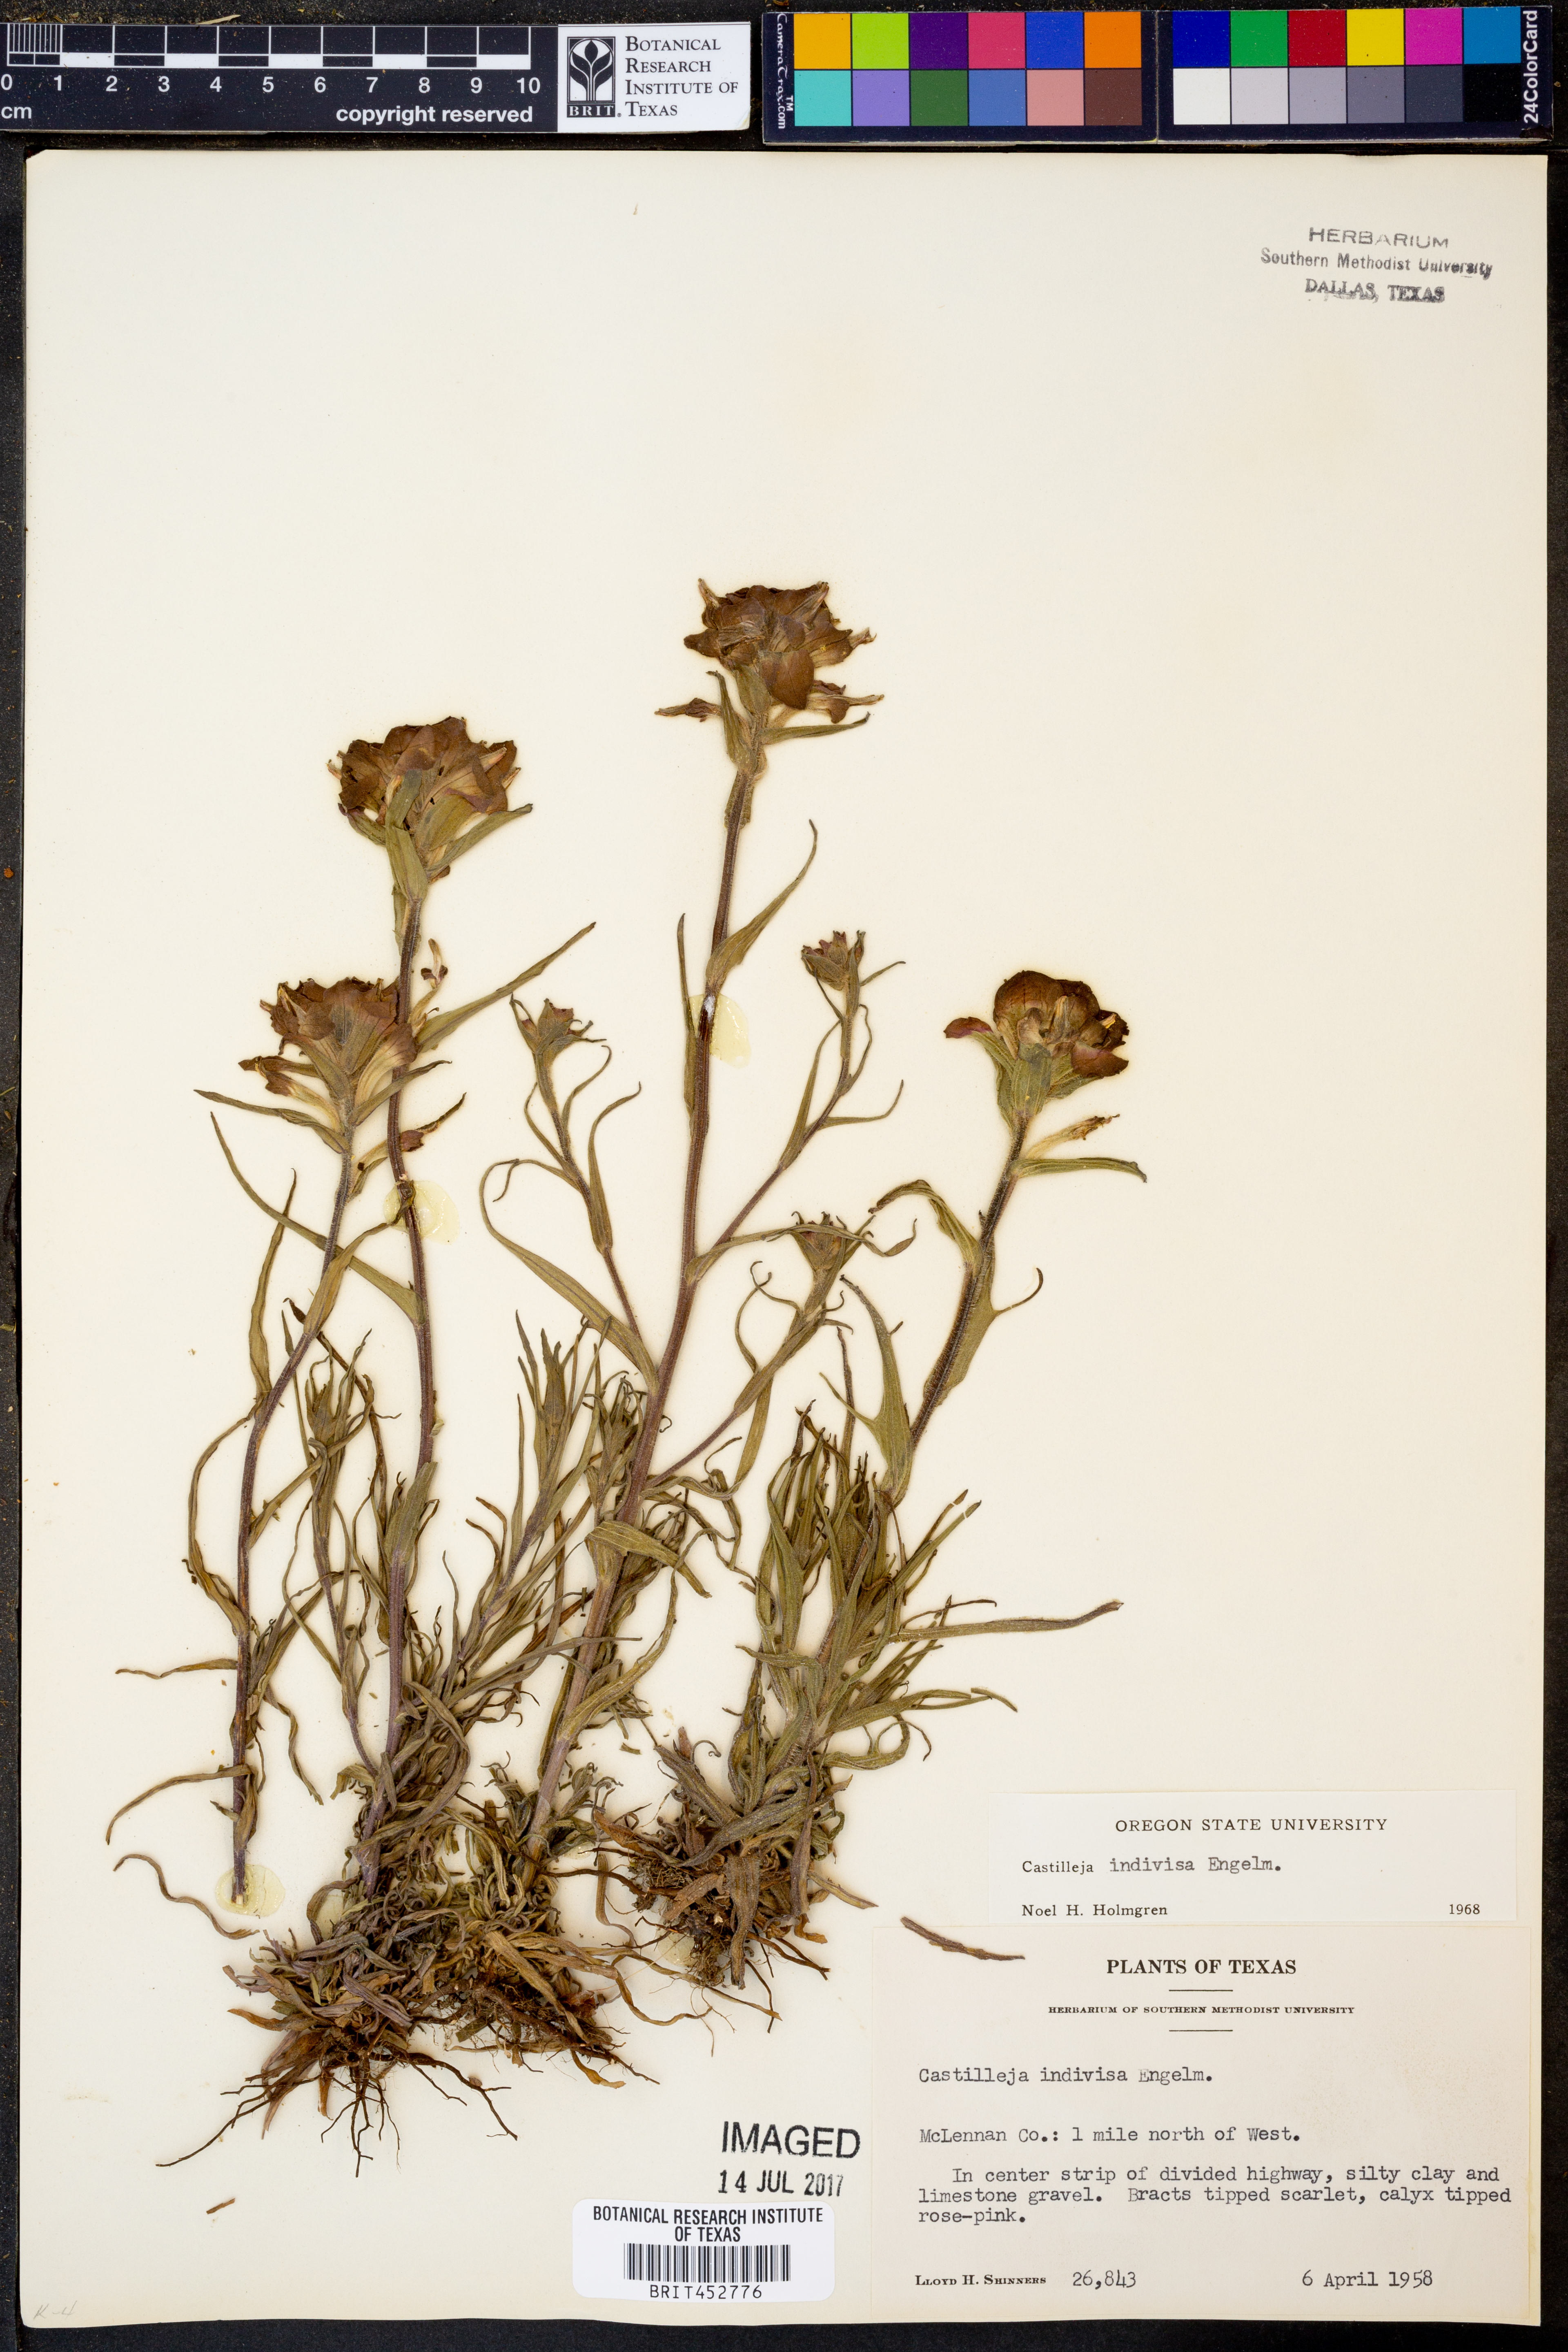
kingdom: Plantae
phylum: Tracheophyta
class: Magnoliopsida
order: Lamiales
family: Orobanchaceae
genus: Castilleja
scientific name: Castilleja indivisa
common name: Texas paintbrush
